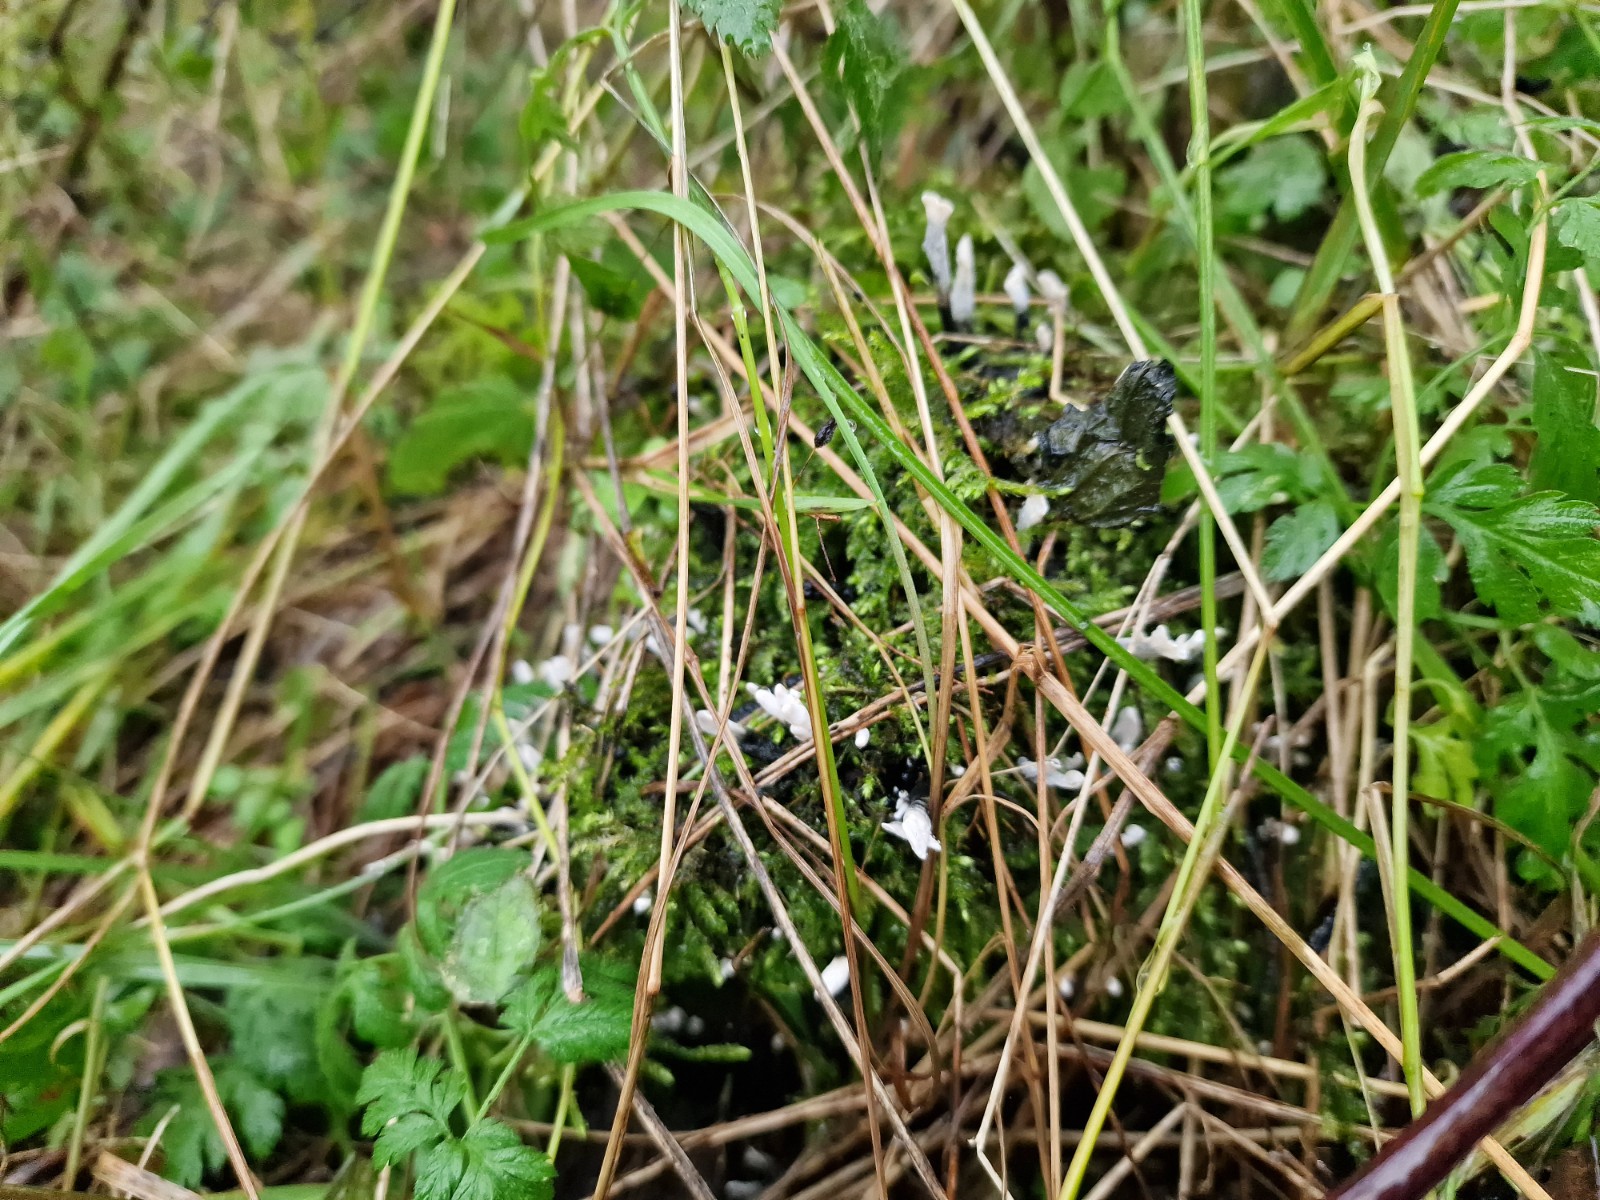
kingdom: Fungi
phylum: Ascomycota
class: Sordariomycetes
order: Xylariales
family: Xylariaceae
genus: Xylaria
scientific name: Xylaria hypoxylon
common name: grenet stødsvamp
